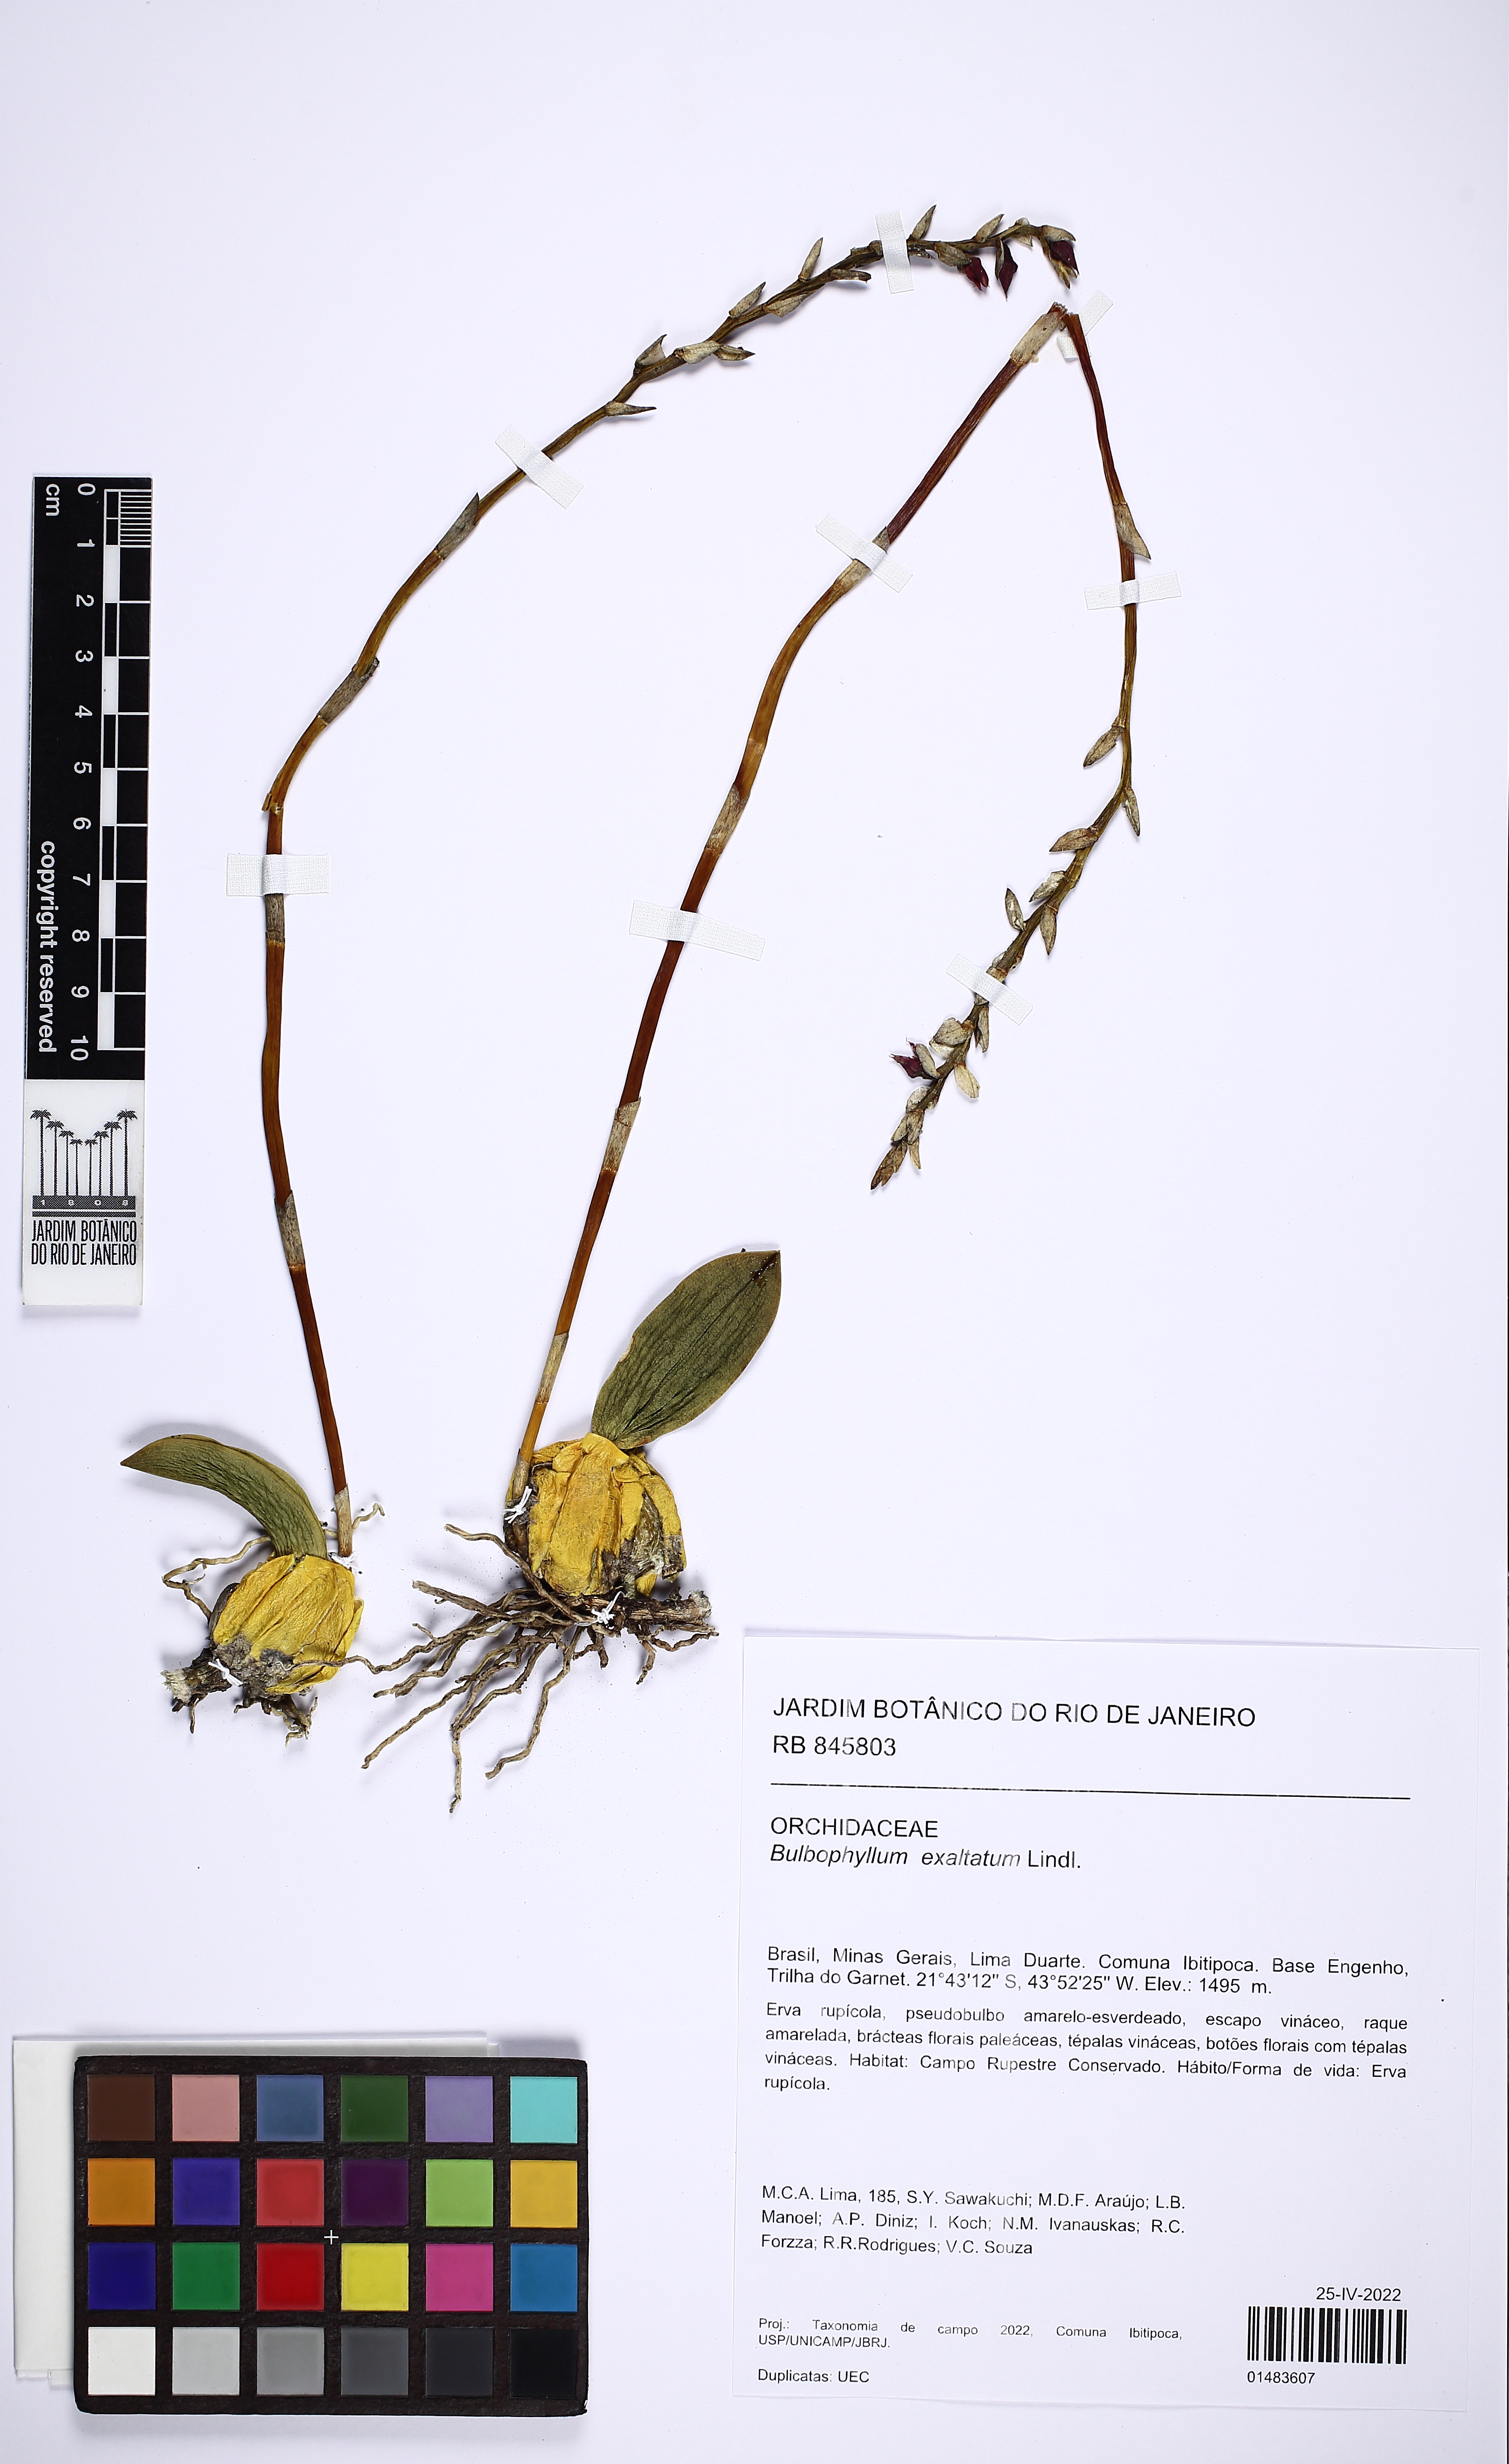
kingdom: Plantae
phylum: Tracheophyta
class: Liliopsida
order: Asparagales
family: Orchidaceae
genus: Bulbophyllum
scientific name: Bulbophyllum exaltatum
